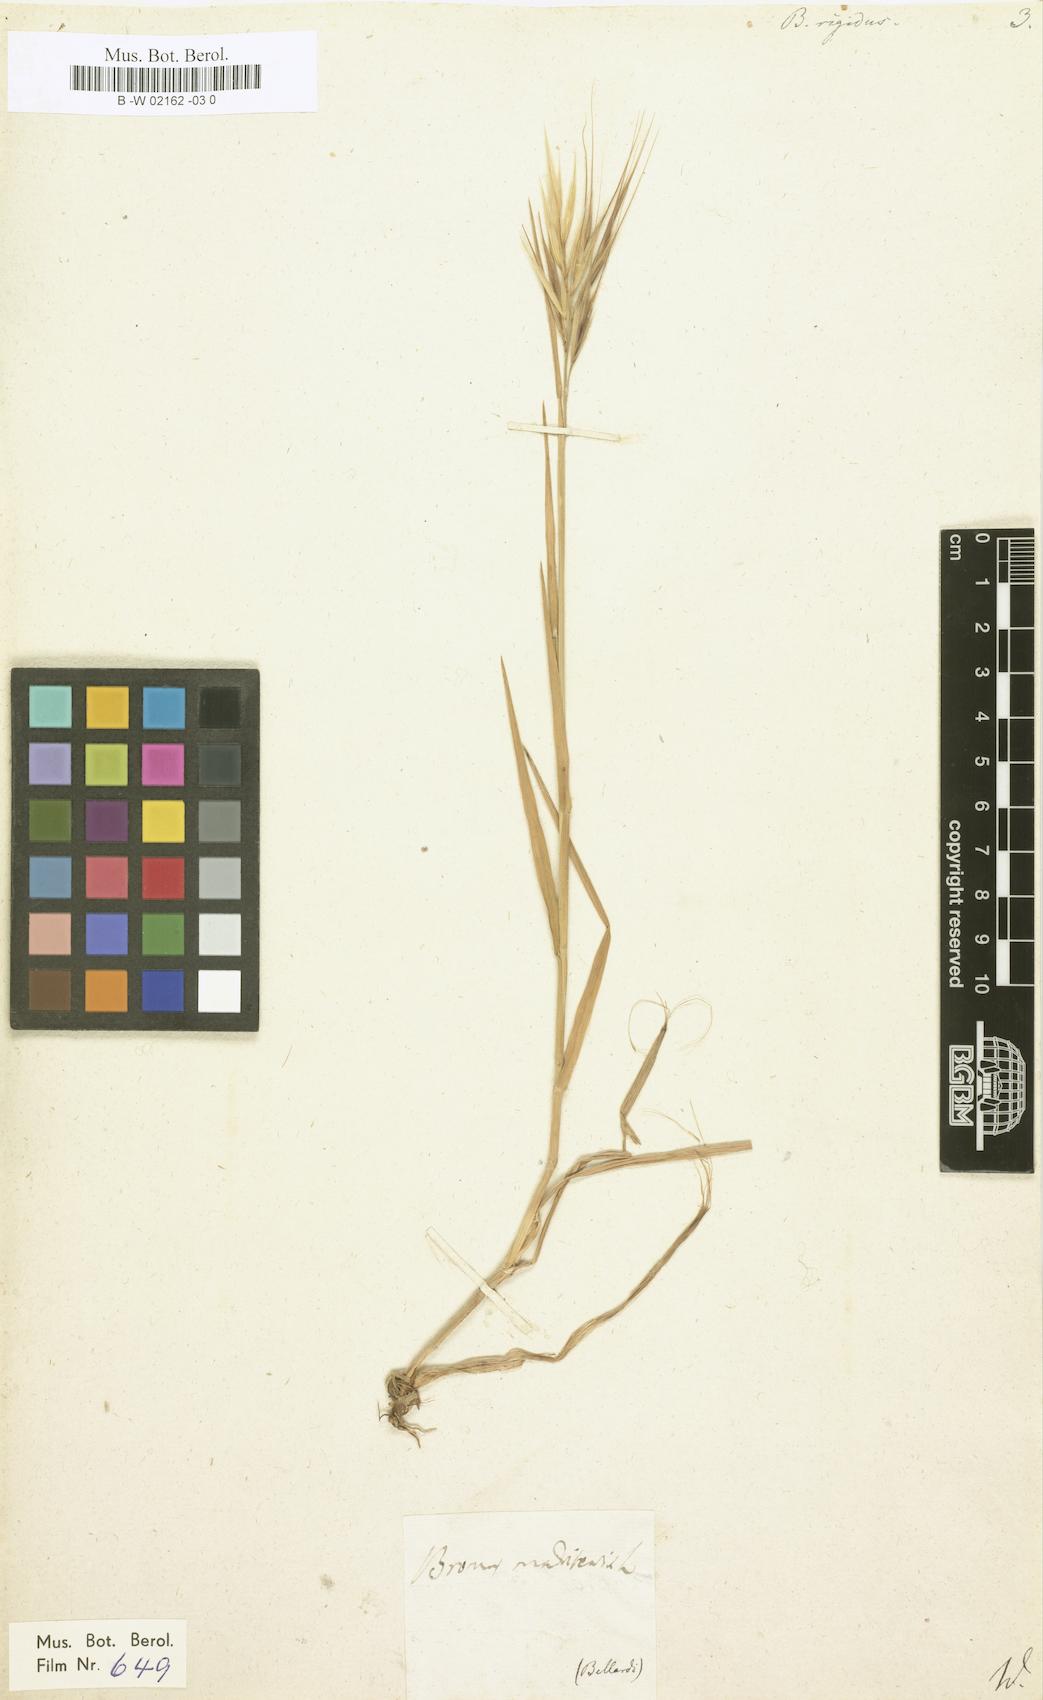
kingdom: Plantae
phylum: Tracheophyta
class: Liliopsida
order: Poales
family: Poaceae
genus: Bromus
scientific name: Bromus rigidus
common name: Ripgut brome
